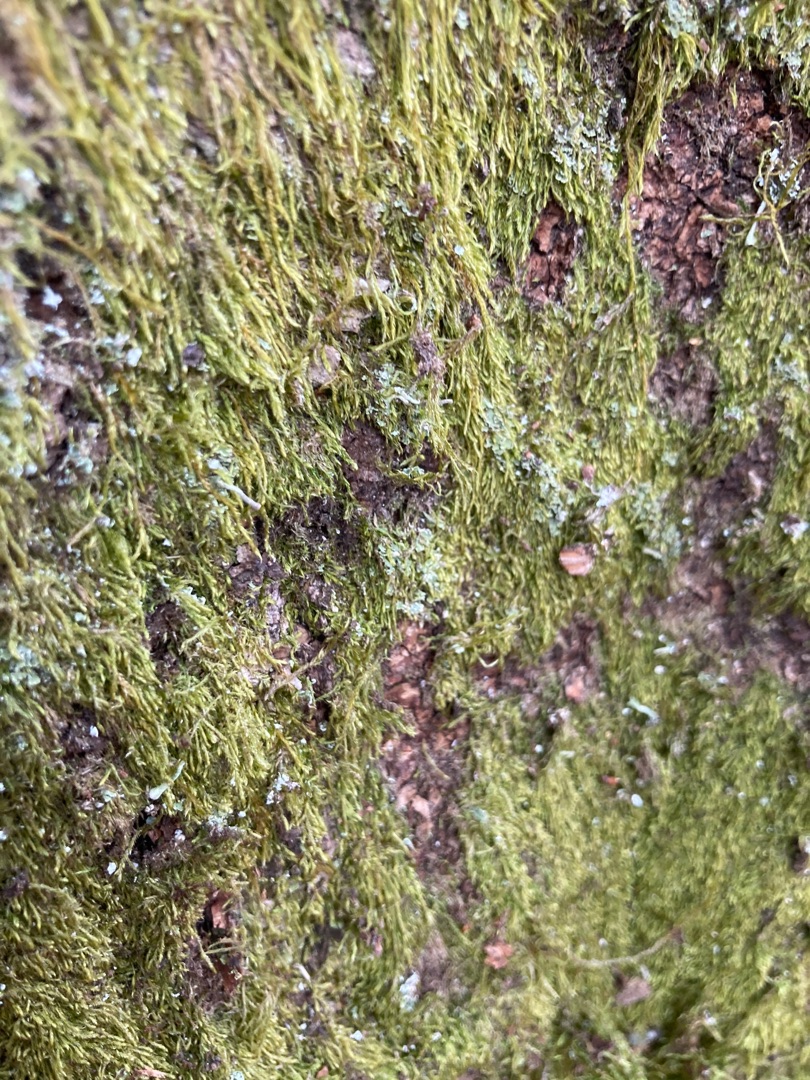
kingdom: Plantae
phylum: Bryophyta
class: Bryopsida
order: Hypnales
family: Hypnaceae
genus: Hypnum
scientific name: Hypnum
